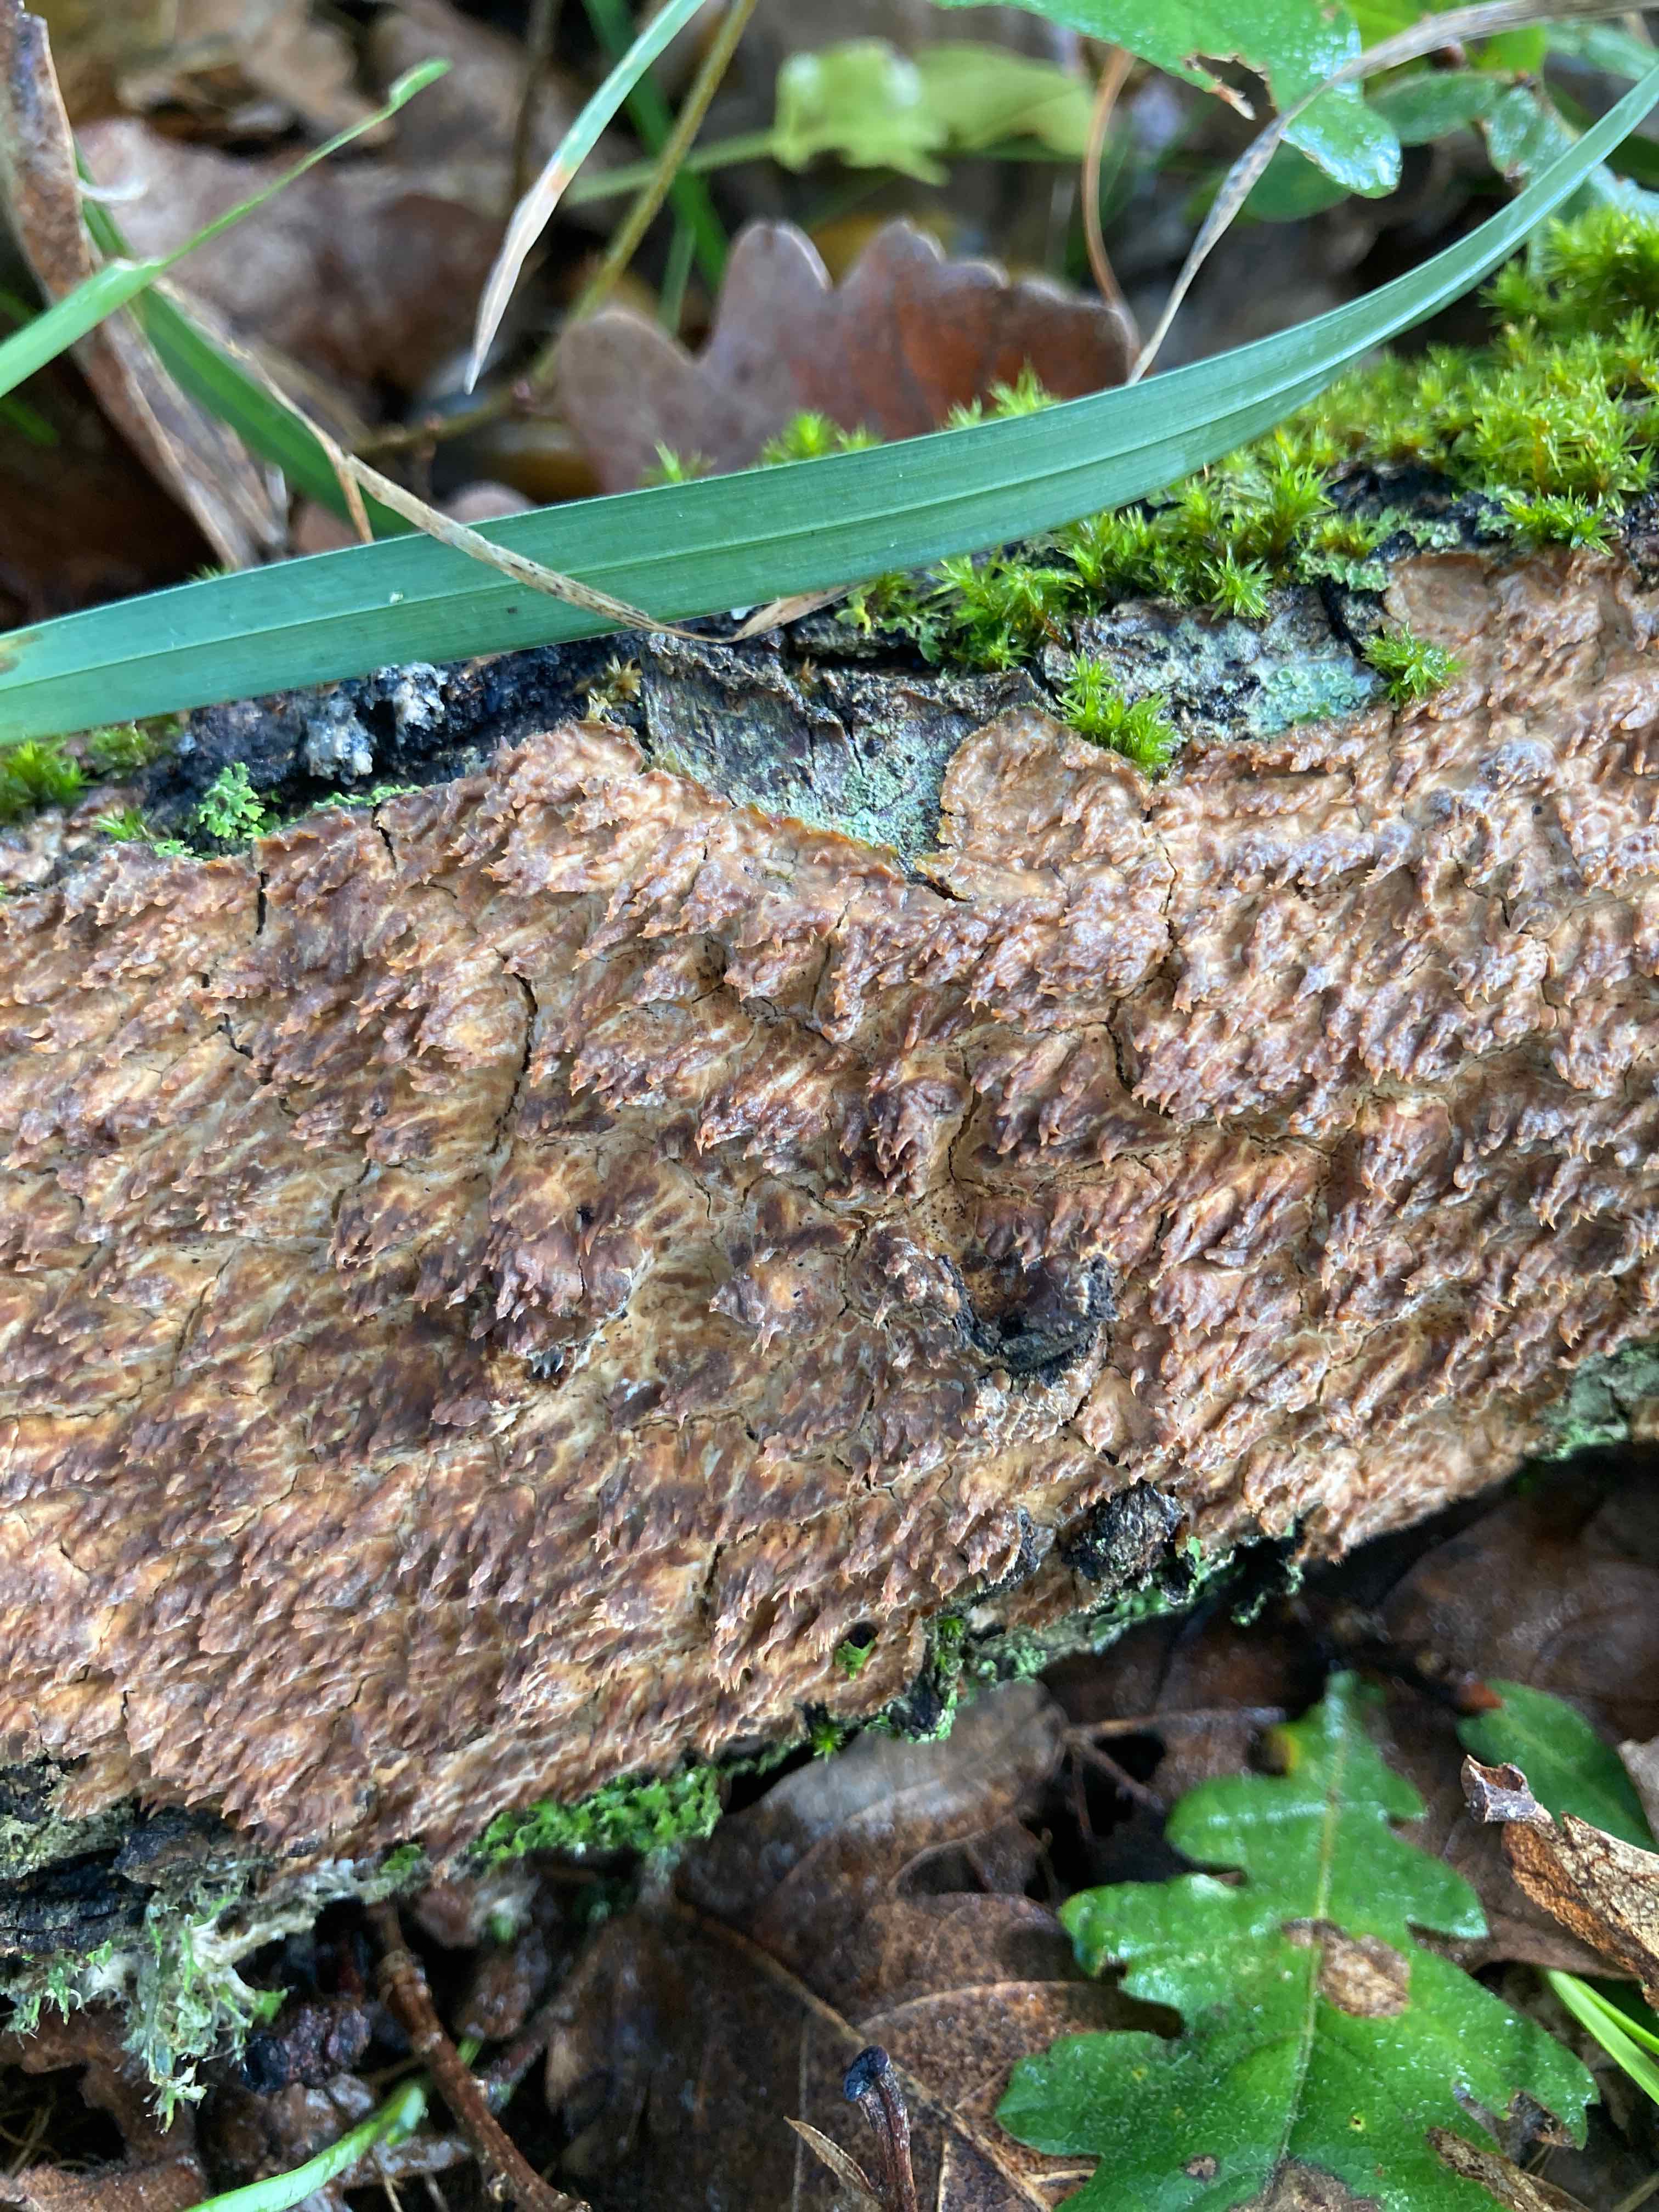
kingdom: Fungi
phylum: Basidiomycota
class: Agaricomycetes
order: Agaricales
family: Radulomycetaceae
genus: Radulomyces
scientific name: Radulomyces molaris
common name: tandet naftalinskind
